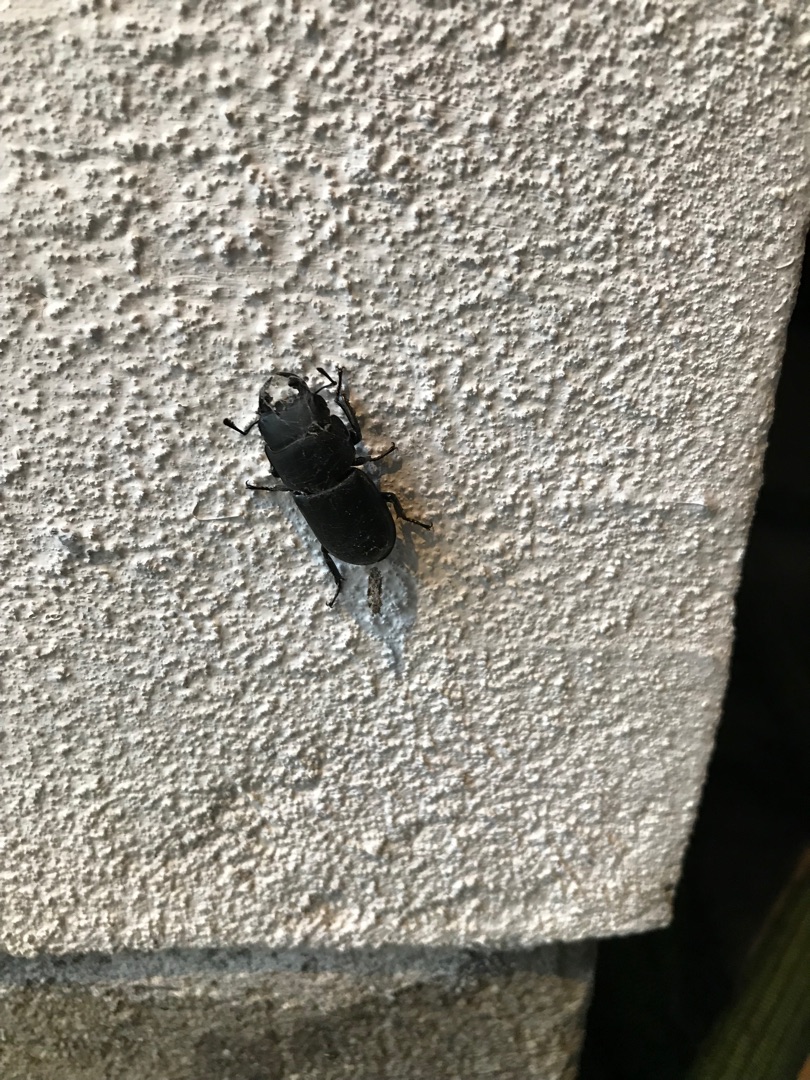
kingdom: Animalia
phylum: Arthropoda
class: Insecta
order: Coleoptera
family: Lucanidae
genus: Dorcus
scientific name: Dorcus parallelipipedus
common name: Bøghjort
